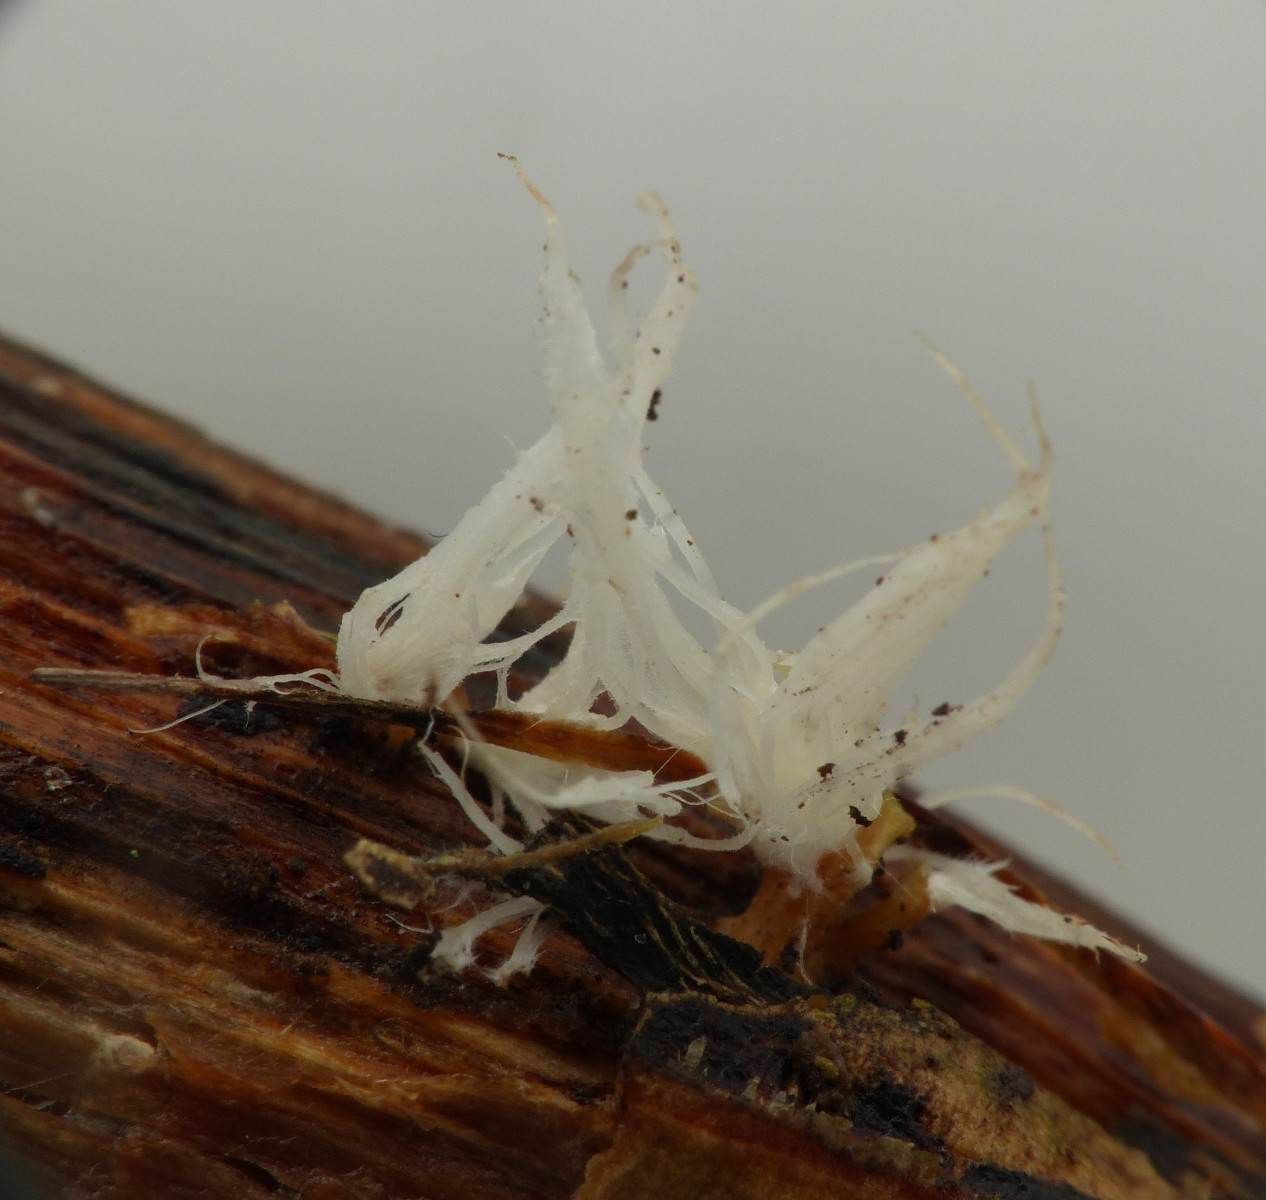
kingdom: Fungi
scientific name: Fungi
